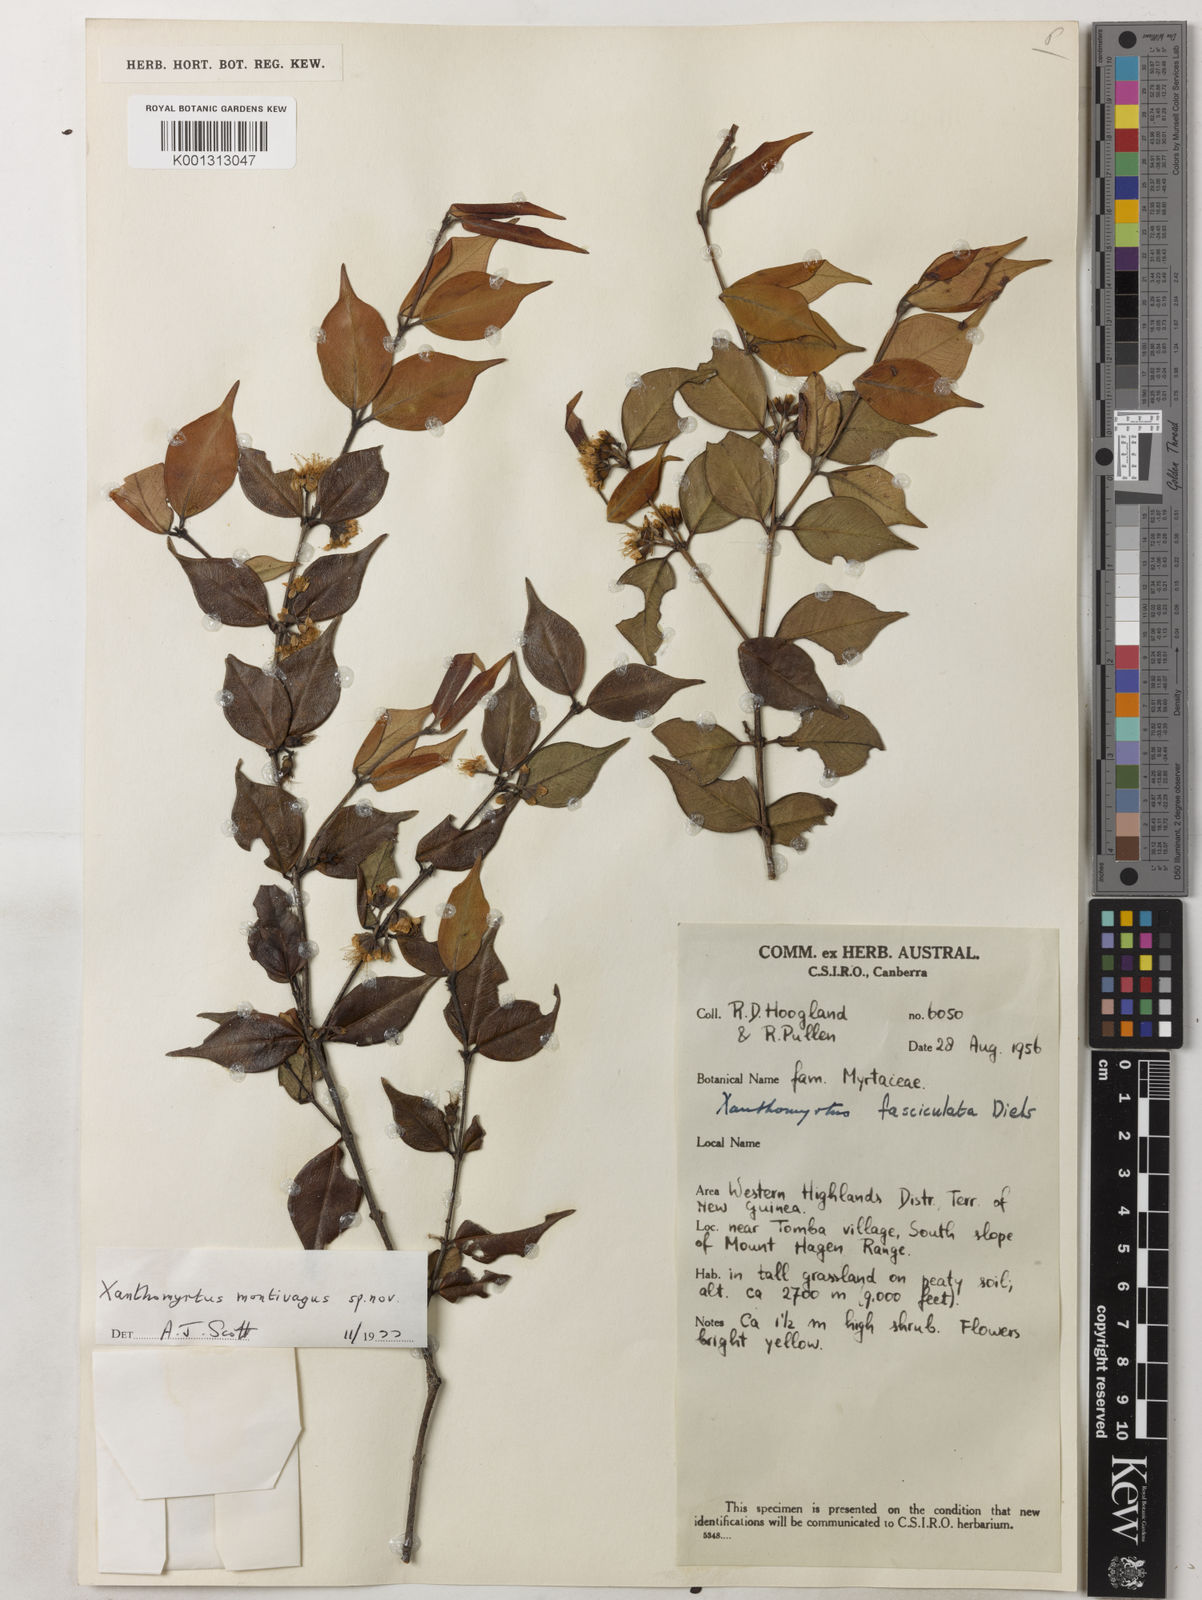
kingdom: Plantae
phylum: Tracheophyta
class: Magnoliopsida
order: Myrtales
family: Myrtaceae
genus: Xanthomyrtus
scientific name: Xanthomyrtus montivaga
